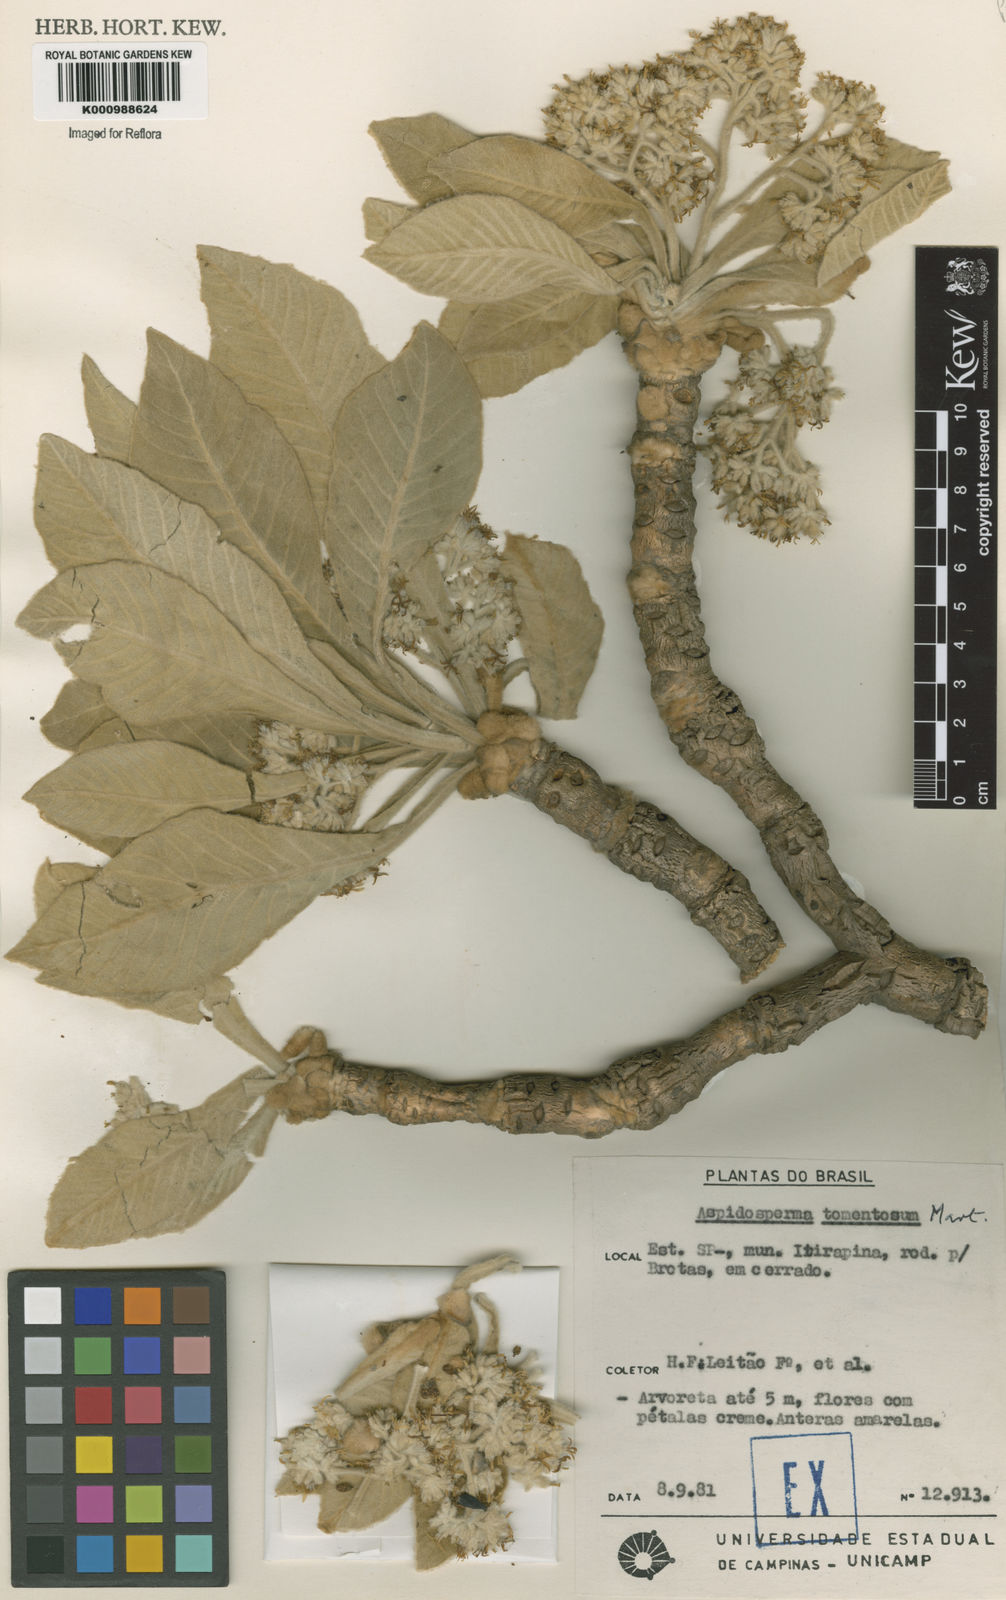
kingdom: Plantae
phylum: Tracheophyta
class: Magnoliopsida
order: Gentianales
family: Apocynaceae
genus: Aspidosperma
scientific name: Aspidosperma tomentosum
